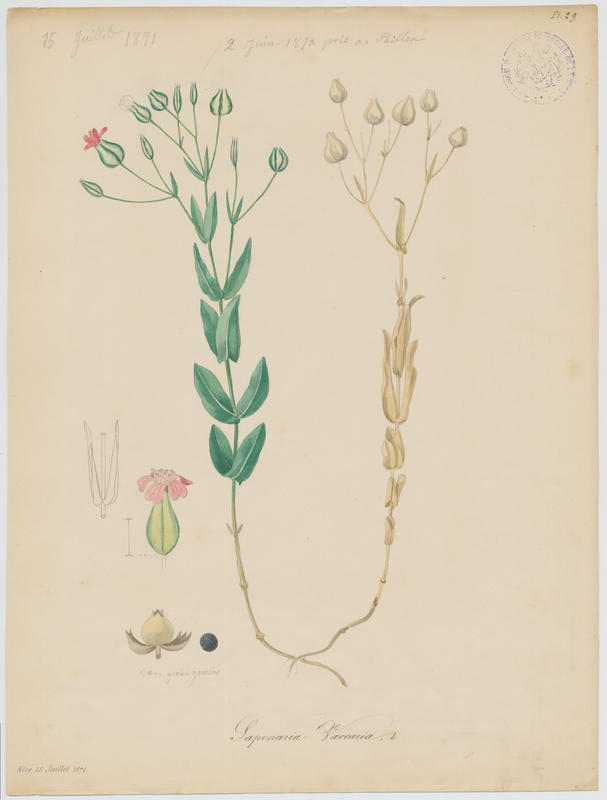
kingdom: Plantae
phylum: Tracheophyta
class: Magnoliopsida
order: Caryophyllales
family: Caryophyllaceae
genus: Gypsophila
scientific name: Gypsophila vaccaria
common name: Cow soapwort
